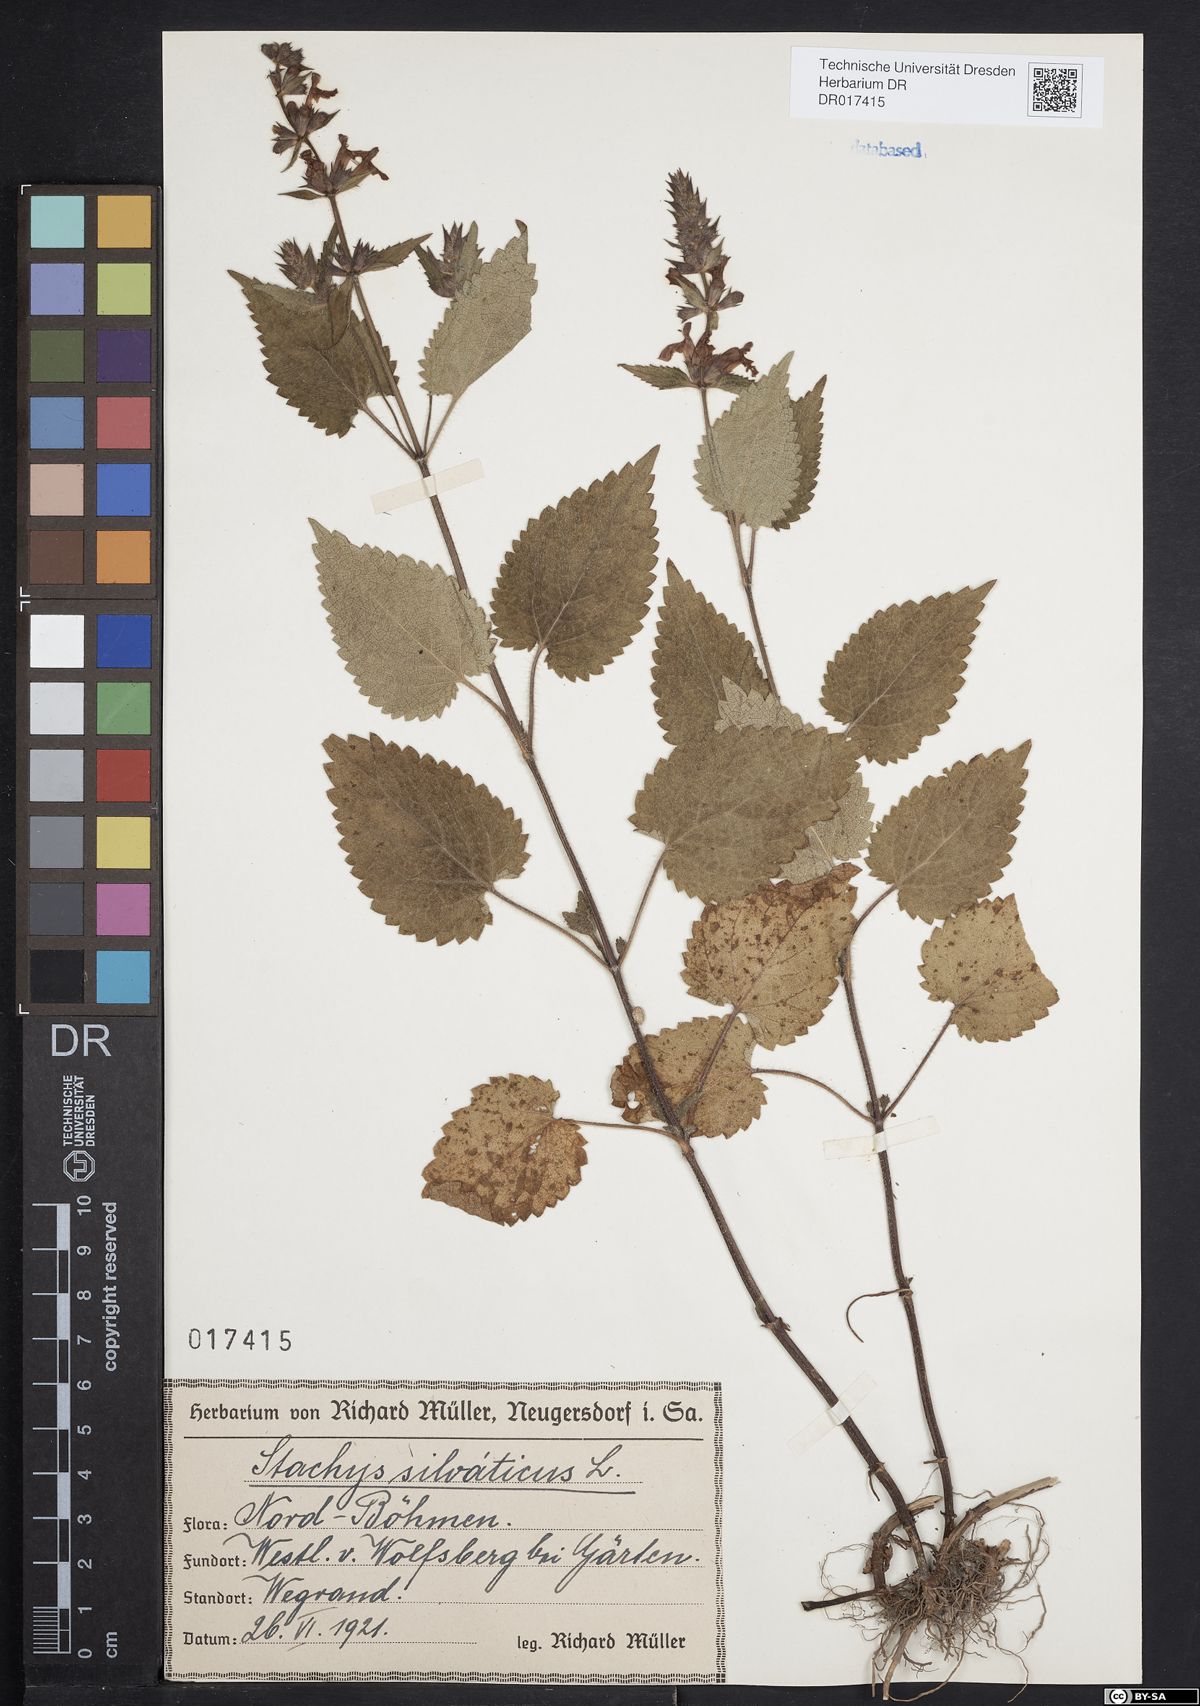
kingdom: Plantae
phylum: Tracheophyta
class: Magnoliopsida
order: Lamiales
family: Lamiaceae
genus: Stachys
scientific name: Stachys sylvatica
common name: Hedge woundwort
